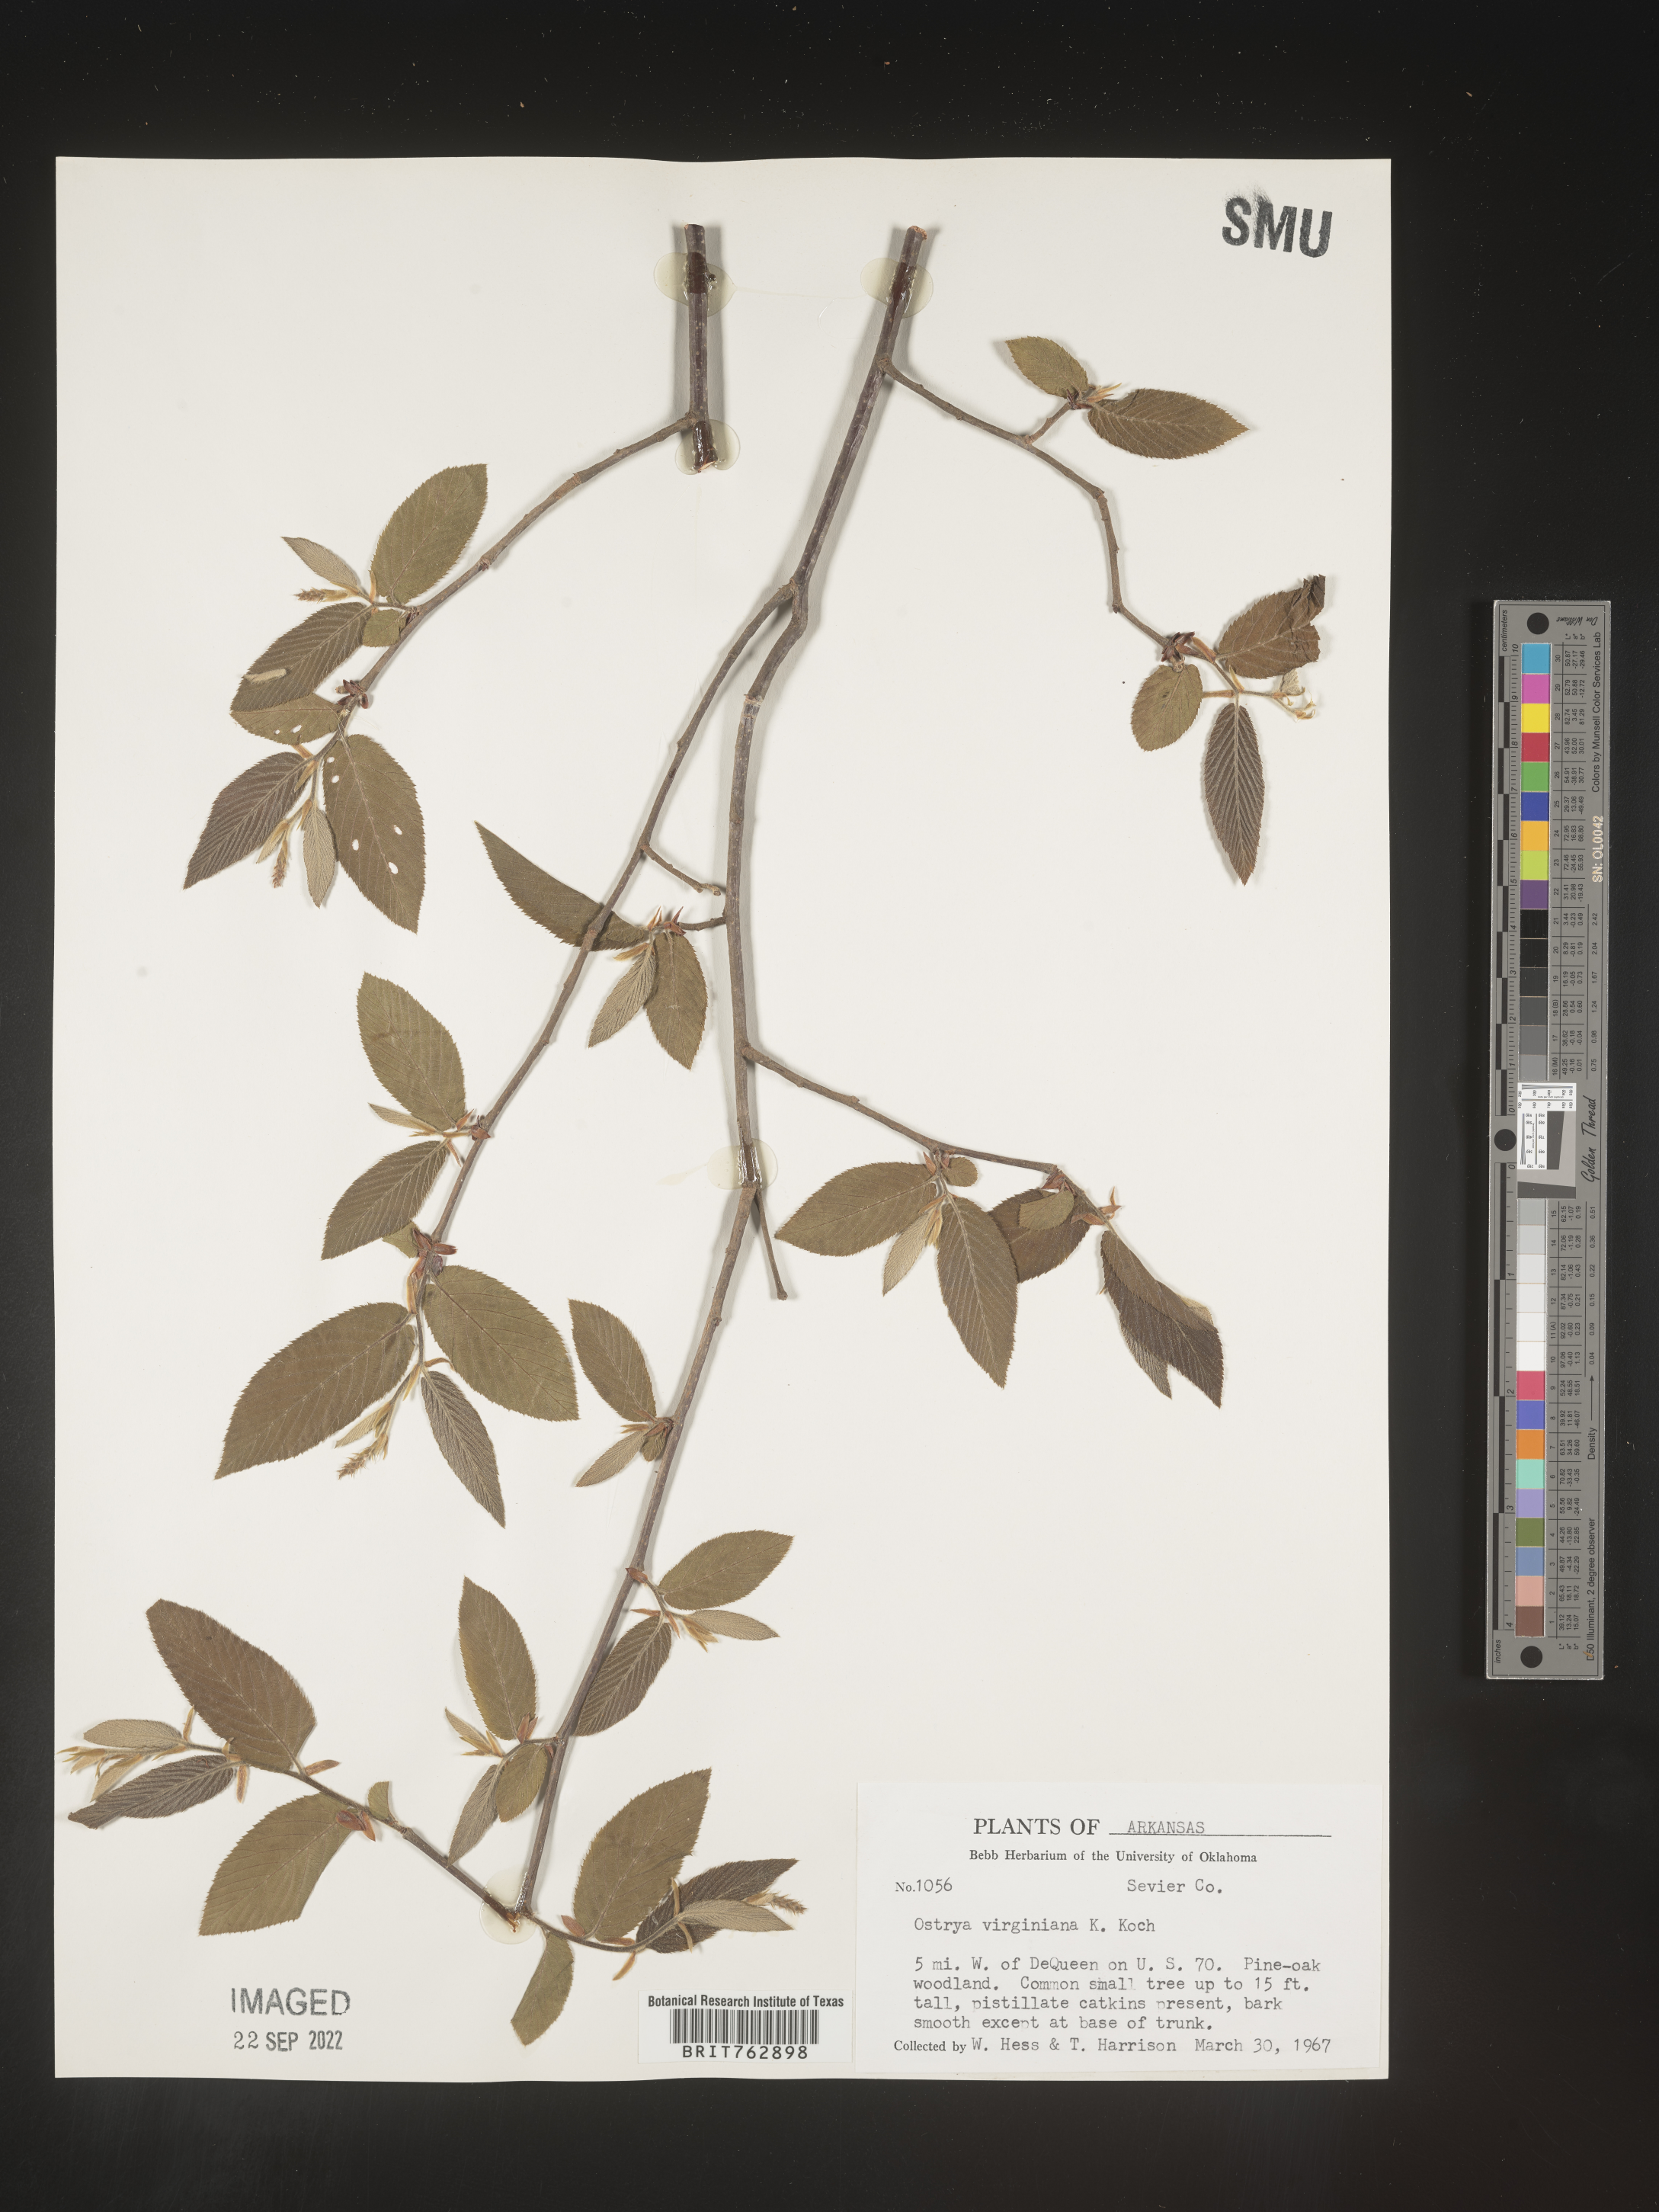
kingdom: Plantae
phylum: Tracheophyta
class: Magnoliopsida
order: Fagales
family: Betulaceae
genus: Ostrya
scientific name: Ostrya virginiana
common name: Ironwood
